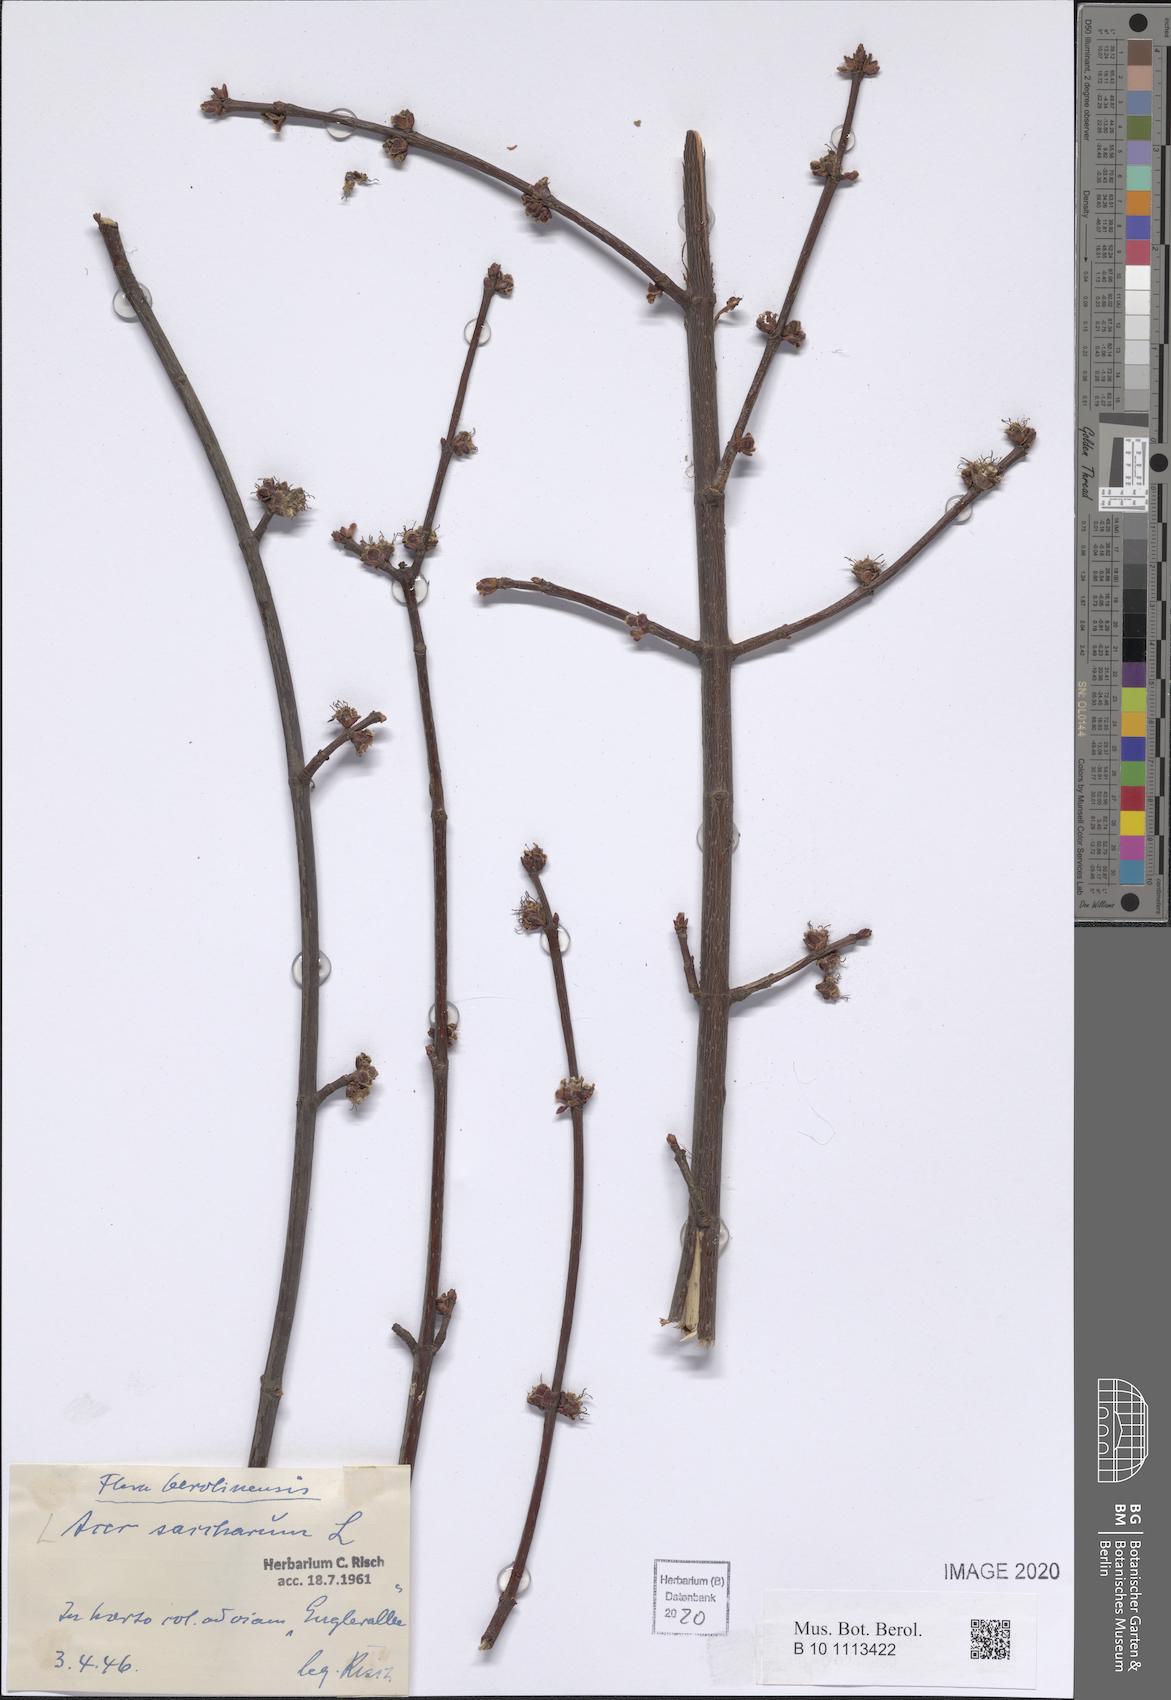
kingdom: Plantae
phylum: Tracheophyta
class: Magnoliopsida
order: Sapindales
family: Sapindaceae
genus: Acer
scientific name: Acer saccharum
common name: Sugar maple
